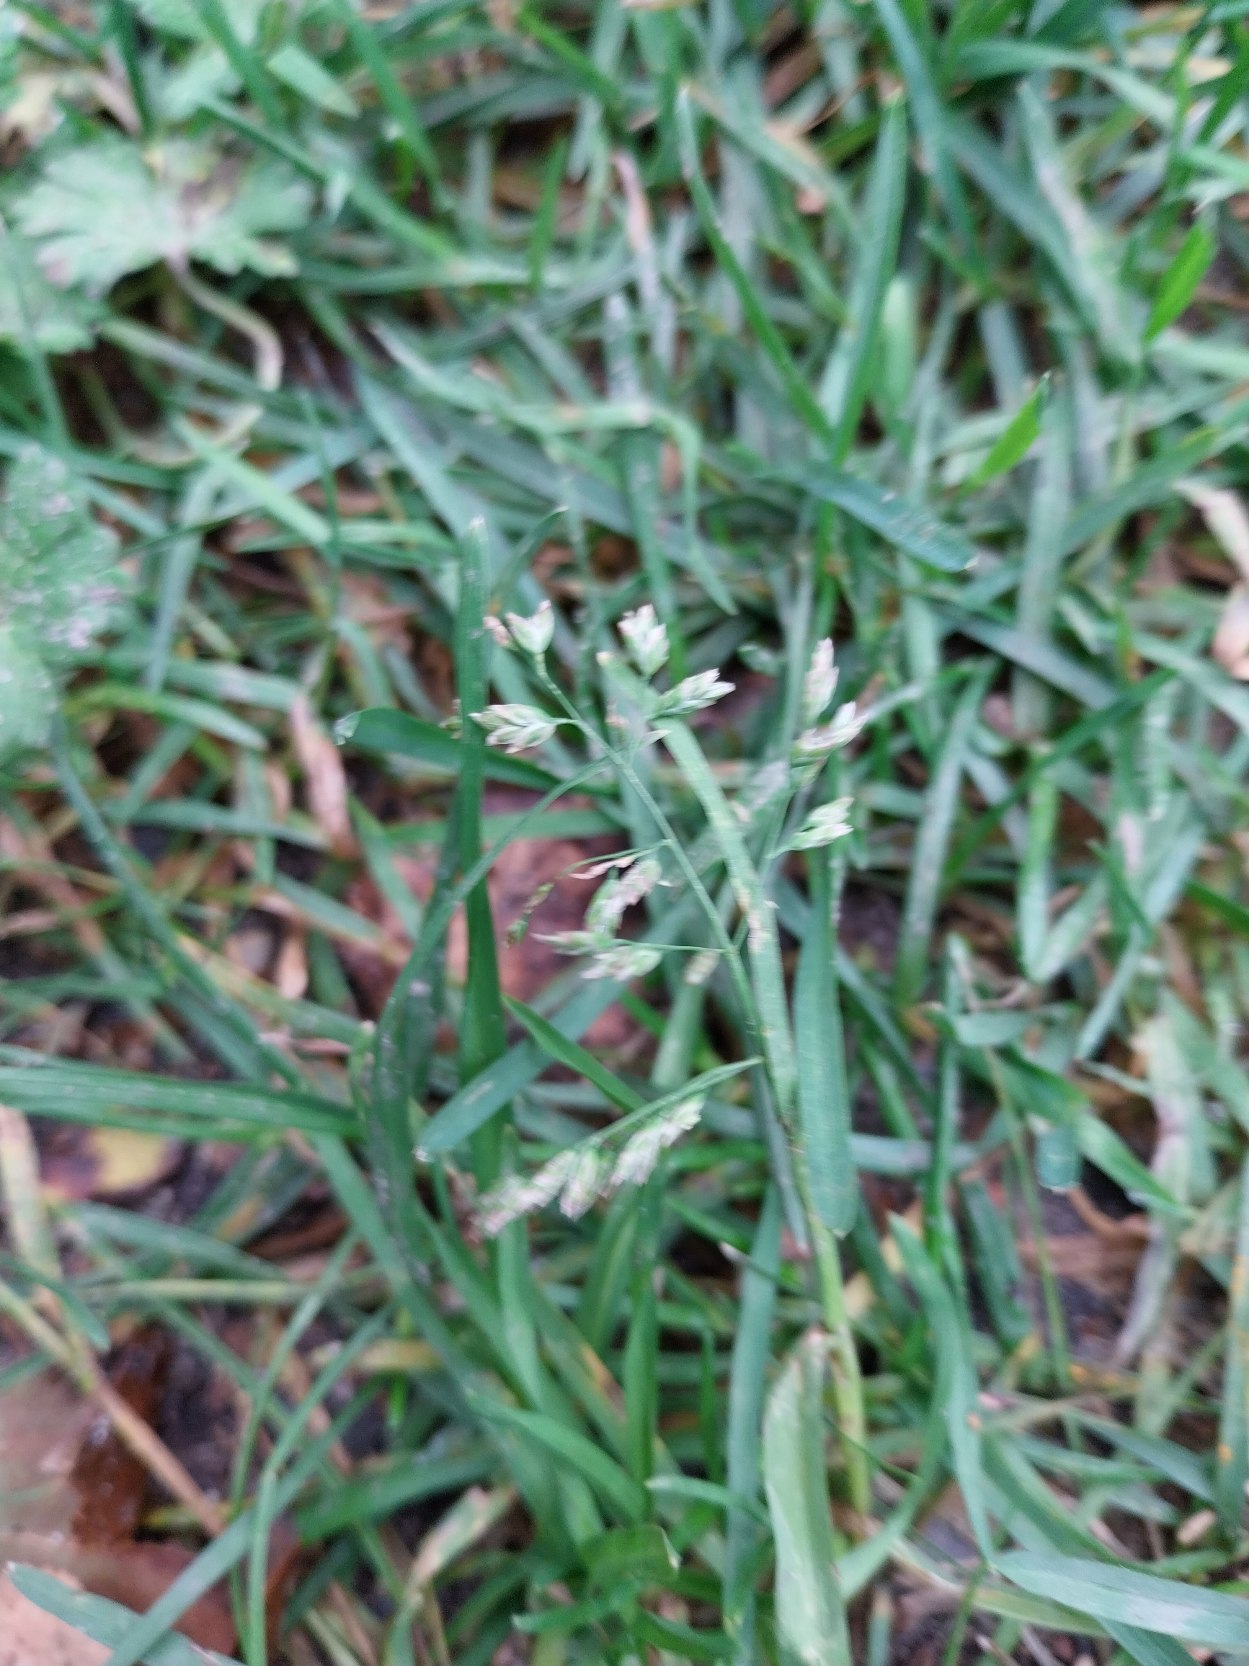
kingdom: Plantae
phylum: Tracheophyta
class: Liliopsida
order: Poales
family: Poaceae
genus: Poa
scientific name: Poa annua
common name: Enårig rapgræs
